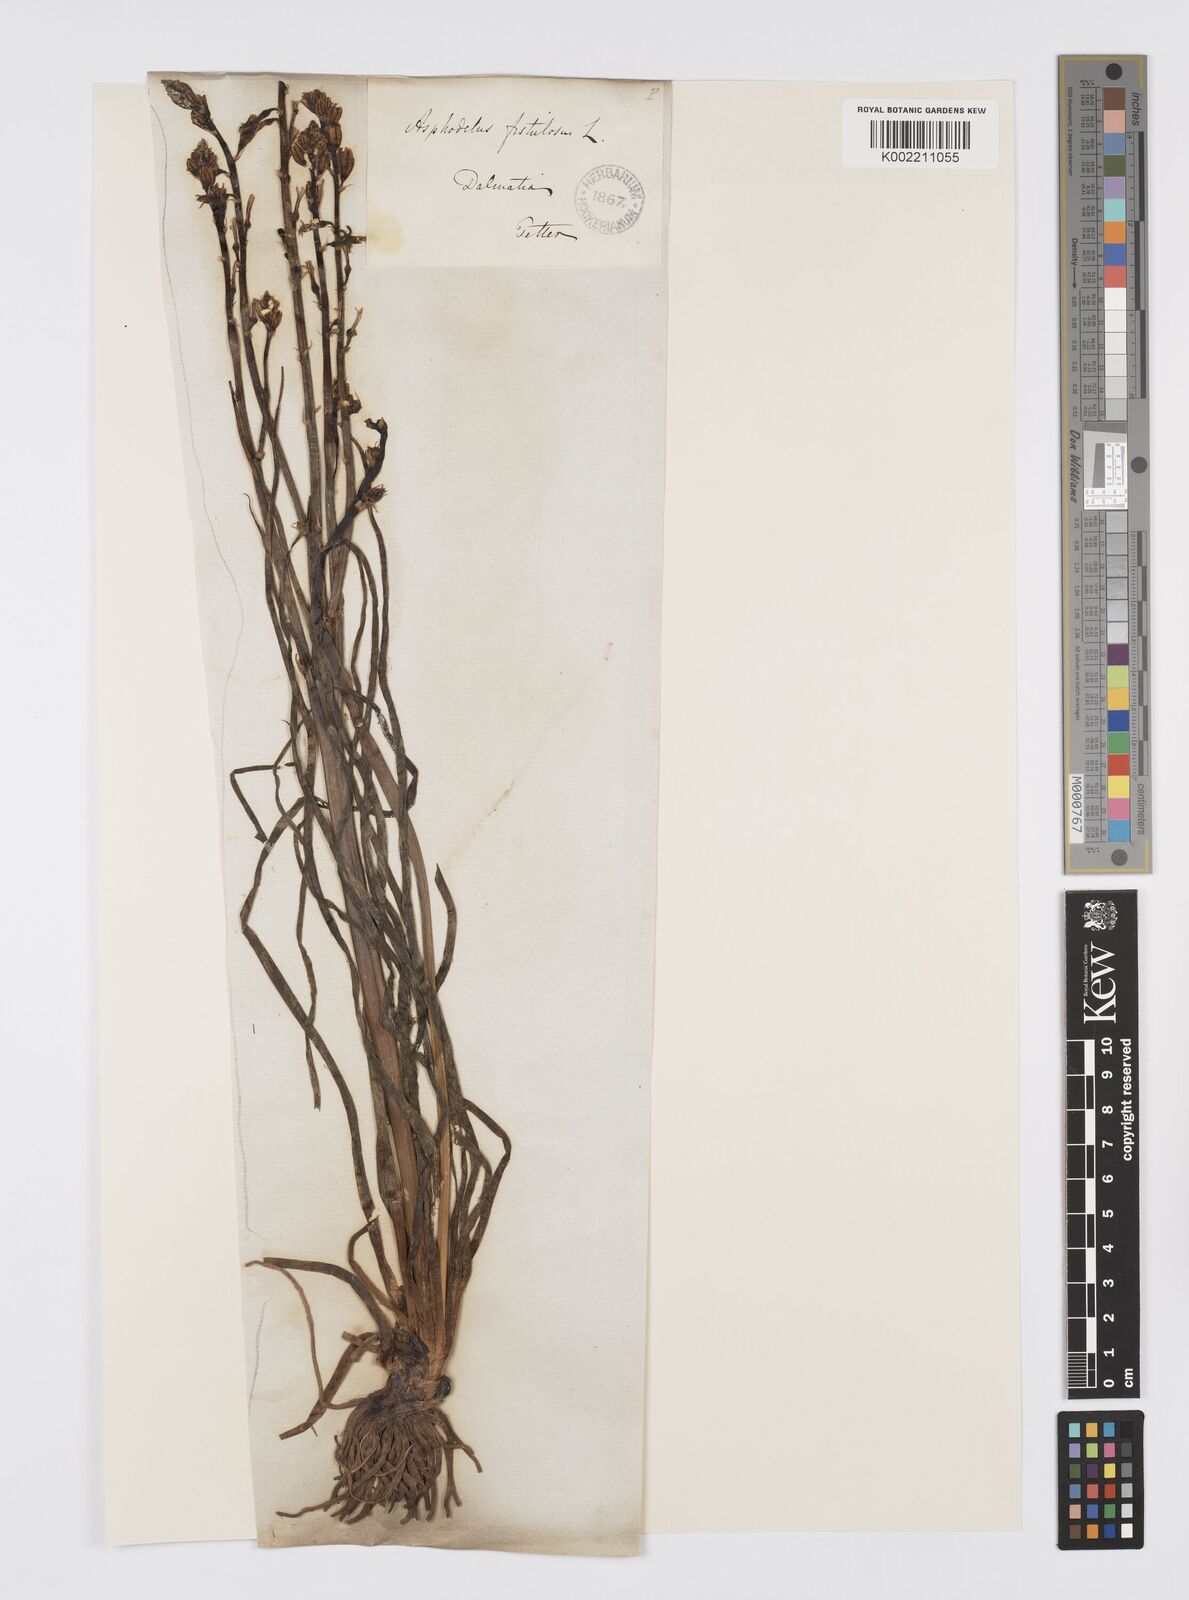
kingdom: Plantae
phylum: Tracheophyta
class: Liliopsida
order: Asparagales
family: Asphodelaceae
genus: Asphodelus
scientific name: Asphodelus fistulosus
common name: Onionweed
